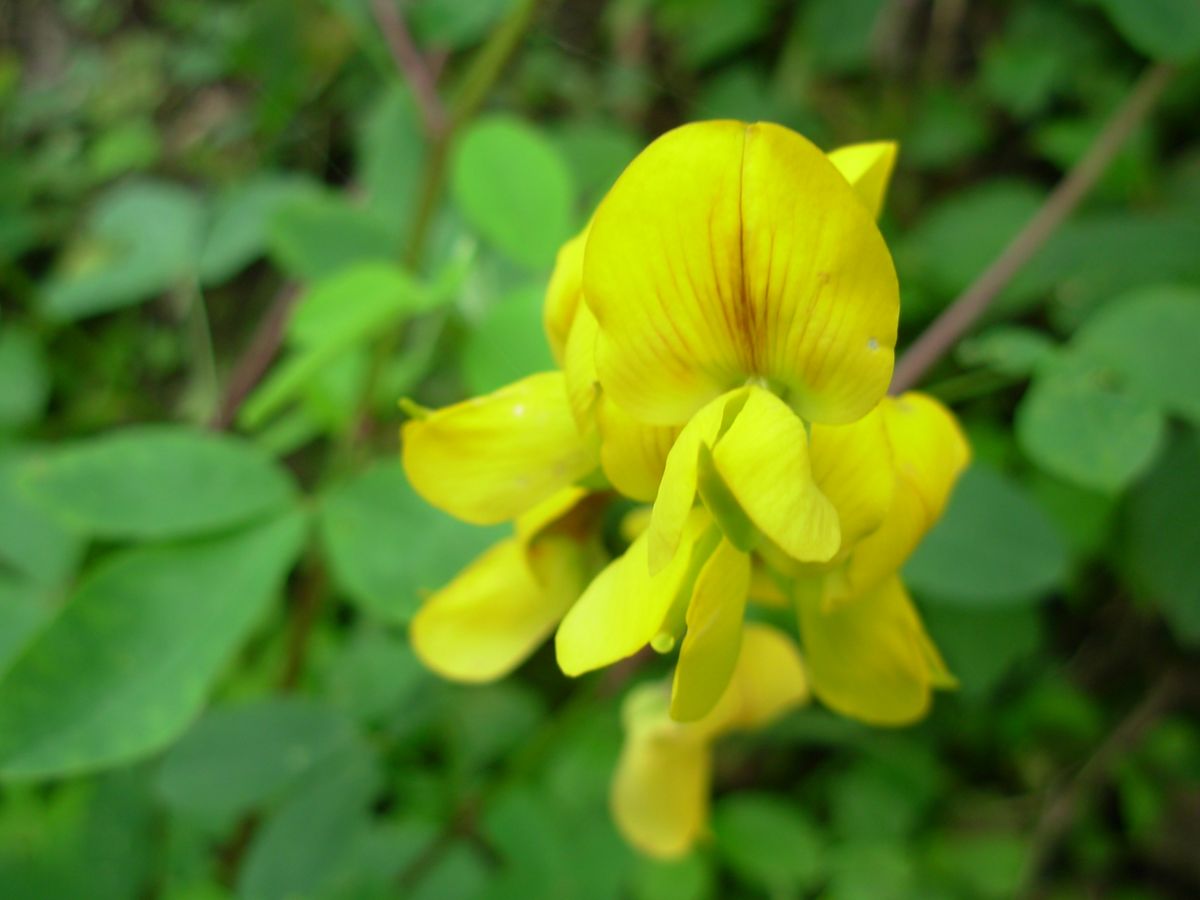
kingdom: Plantae
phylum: Tracheophyta
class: Magnoliopsida
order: Fabales
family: Fabaceae
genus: Crotalaria
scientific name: Crotalaria longirostrata
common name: Longbeak rattlebox
